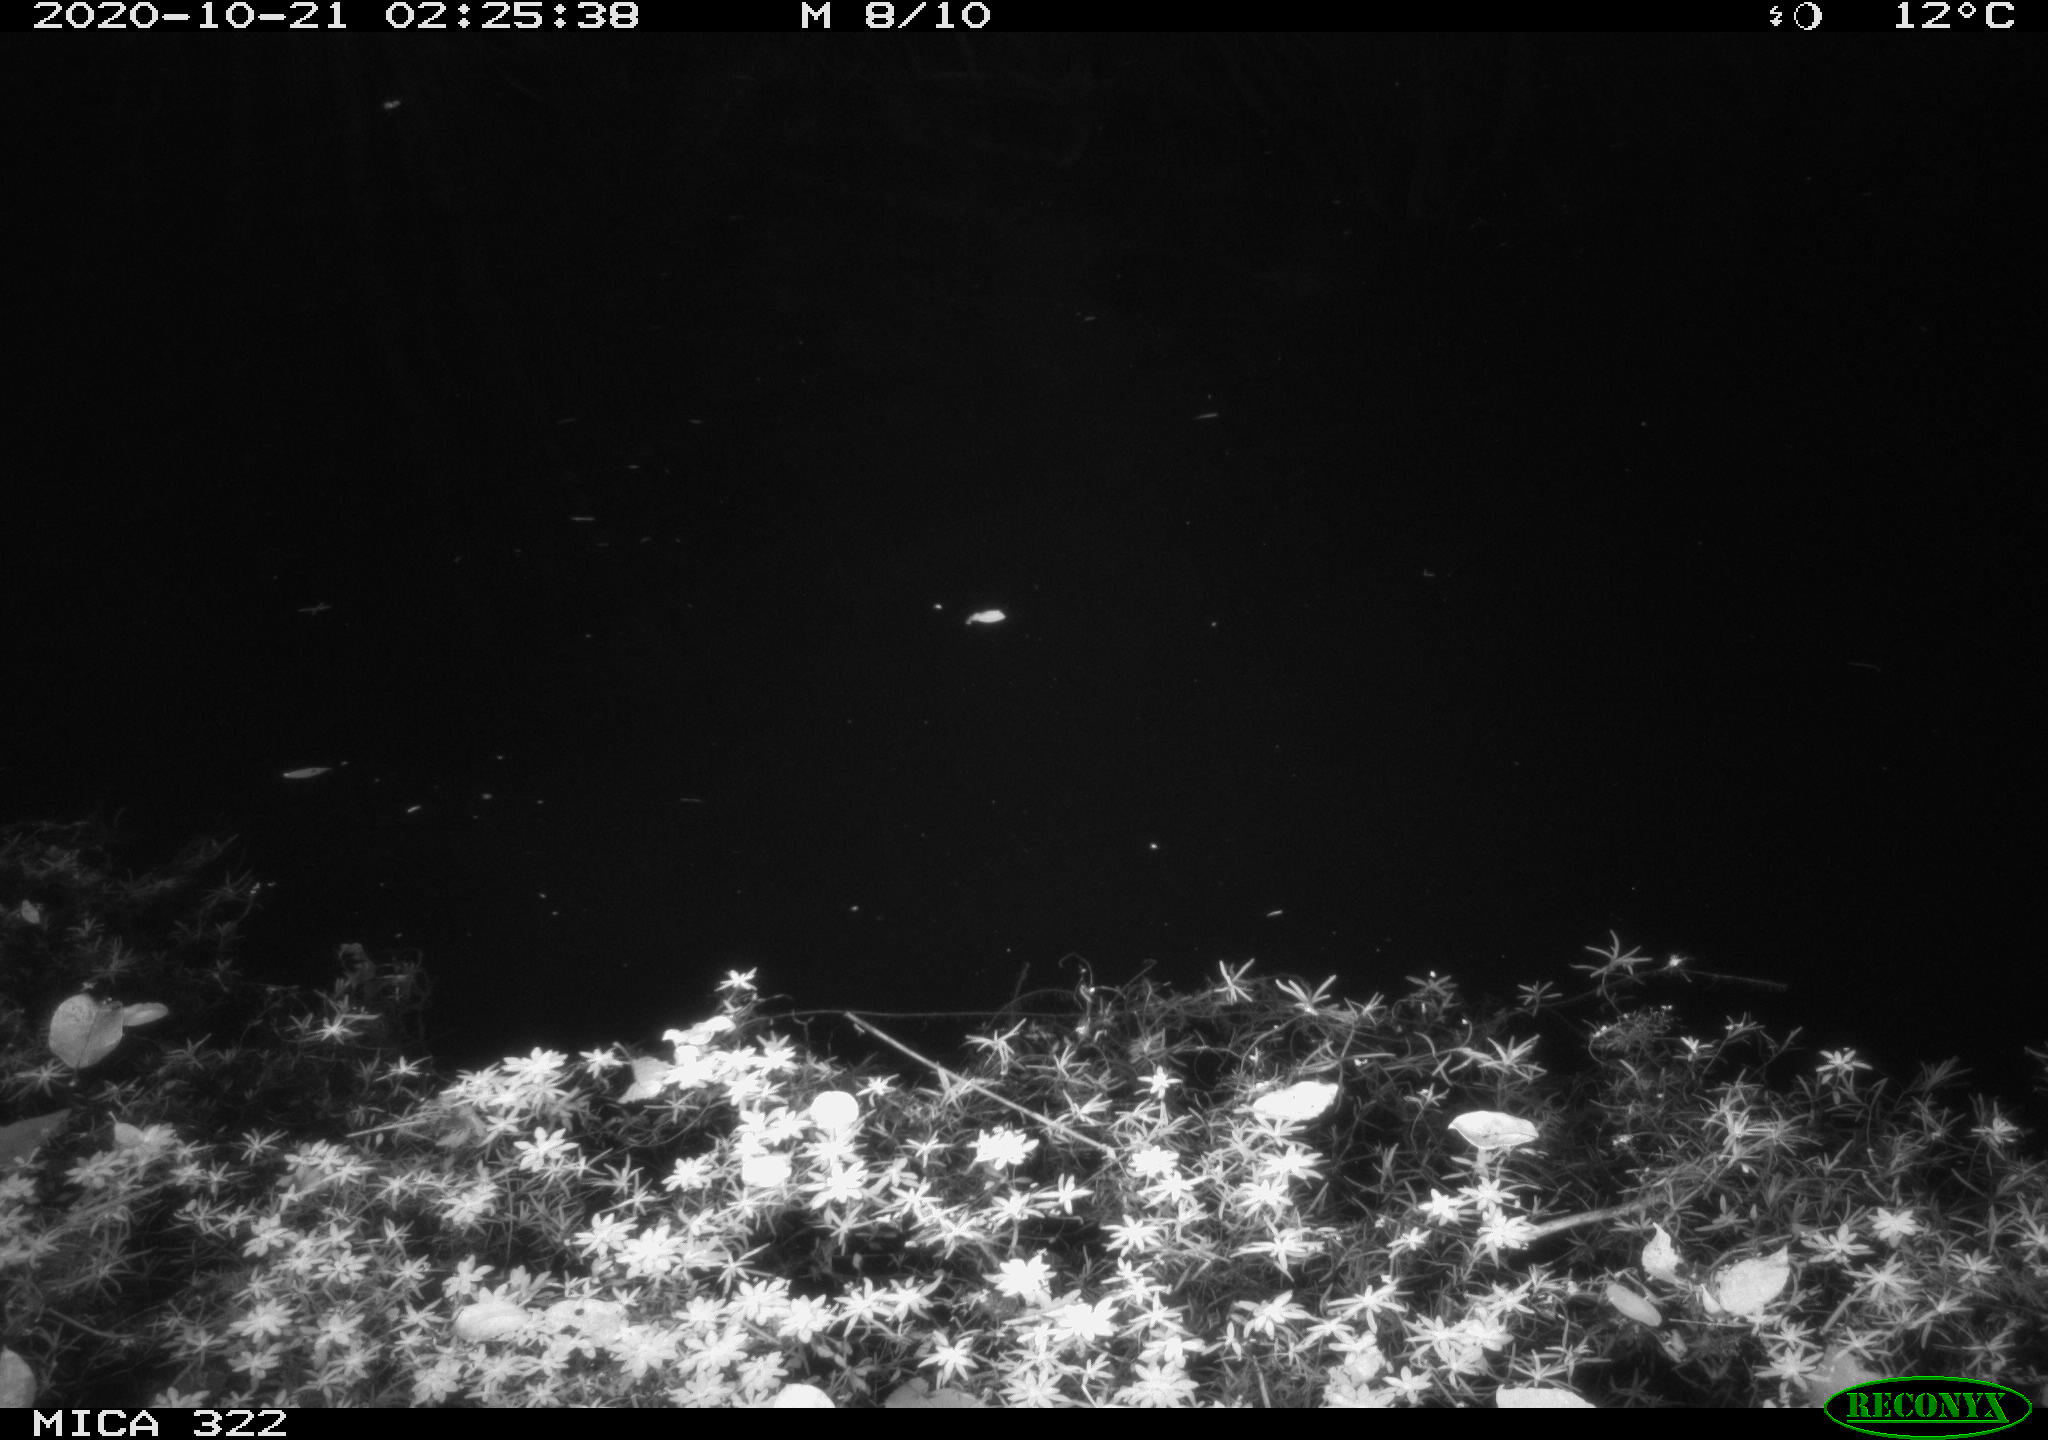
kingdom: Animalia
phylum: Chordata
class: Mammalia
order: Rodentia
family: Muridae
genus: Rattus
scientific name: Rattus norvegicus
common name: Brown rat
